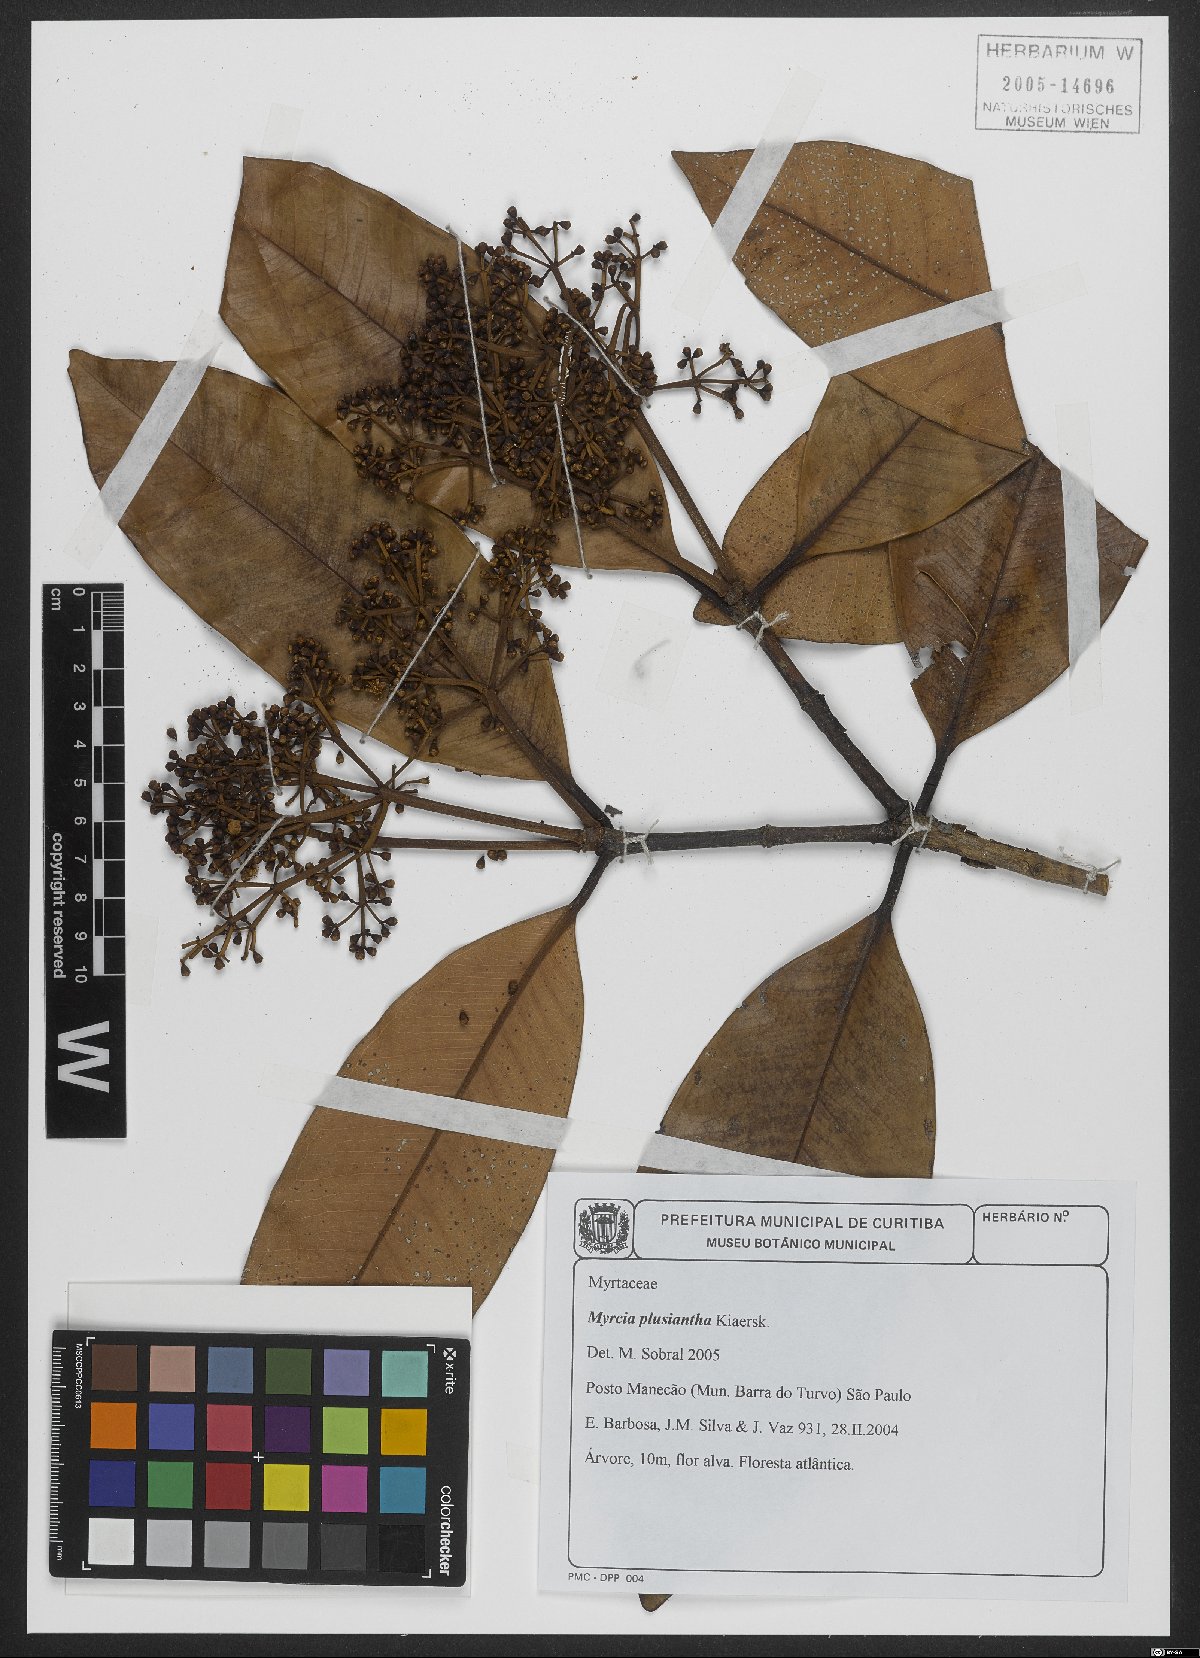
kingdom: Plantae
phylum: Tracheophyta
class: Magnoliopsida
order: Myrtales
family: Myrtaceae
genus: Myrcia
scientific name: Myrcia plusiantha
